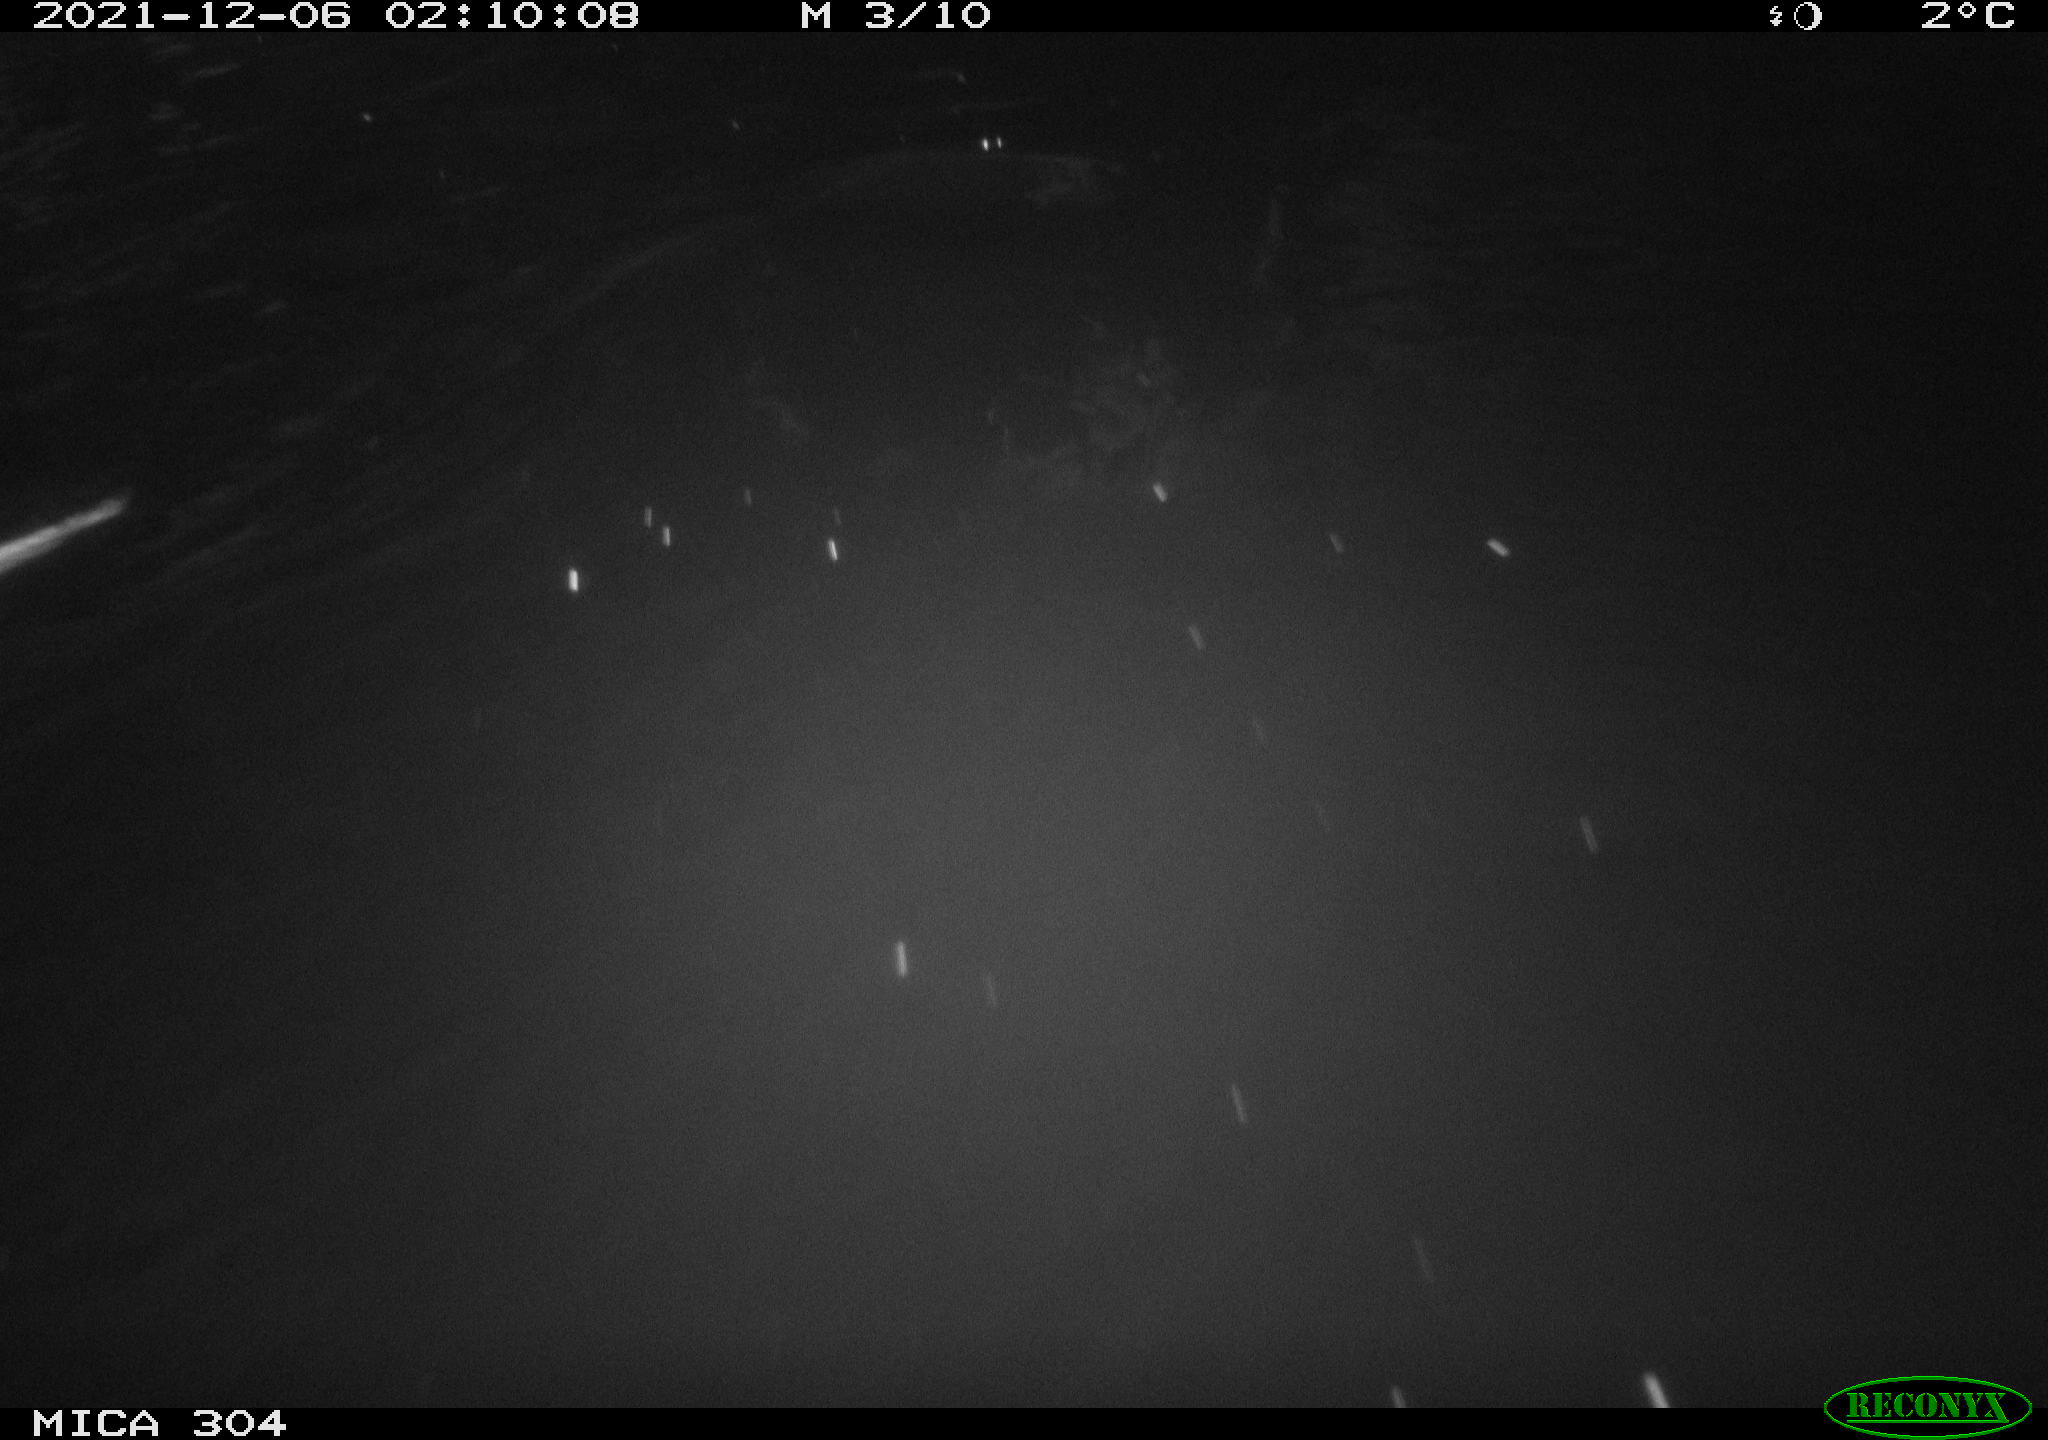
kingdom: Animalia
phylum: Chordata
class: Mammalia
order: Rodentia
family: Cricetidae
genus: Ondatra
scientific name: Ondatra zibethicus
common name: Muskrat
